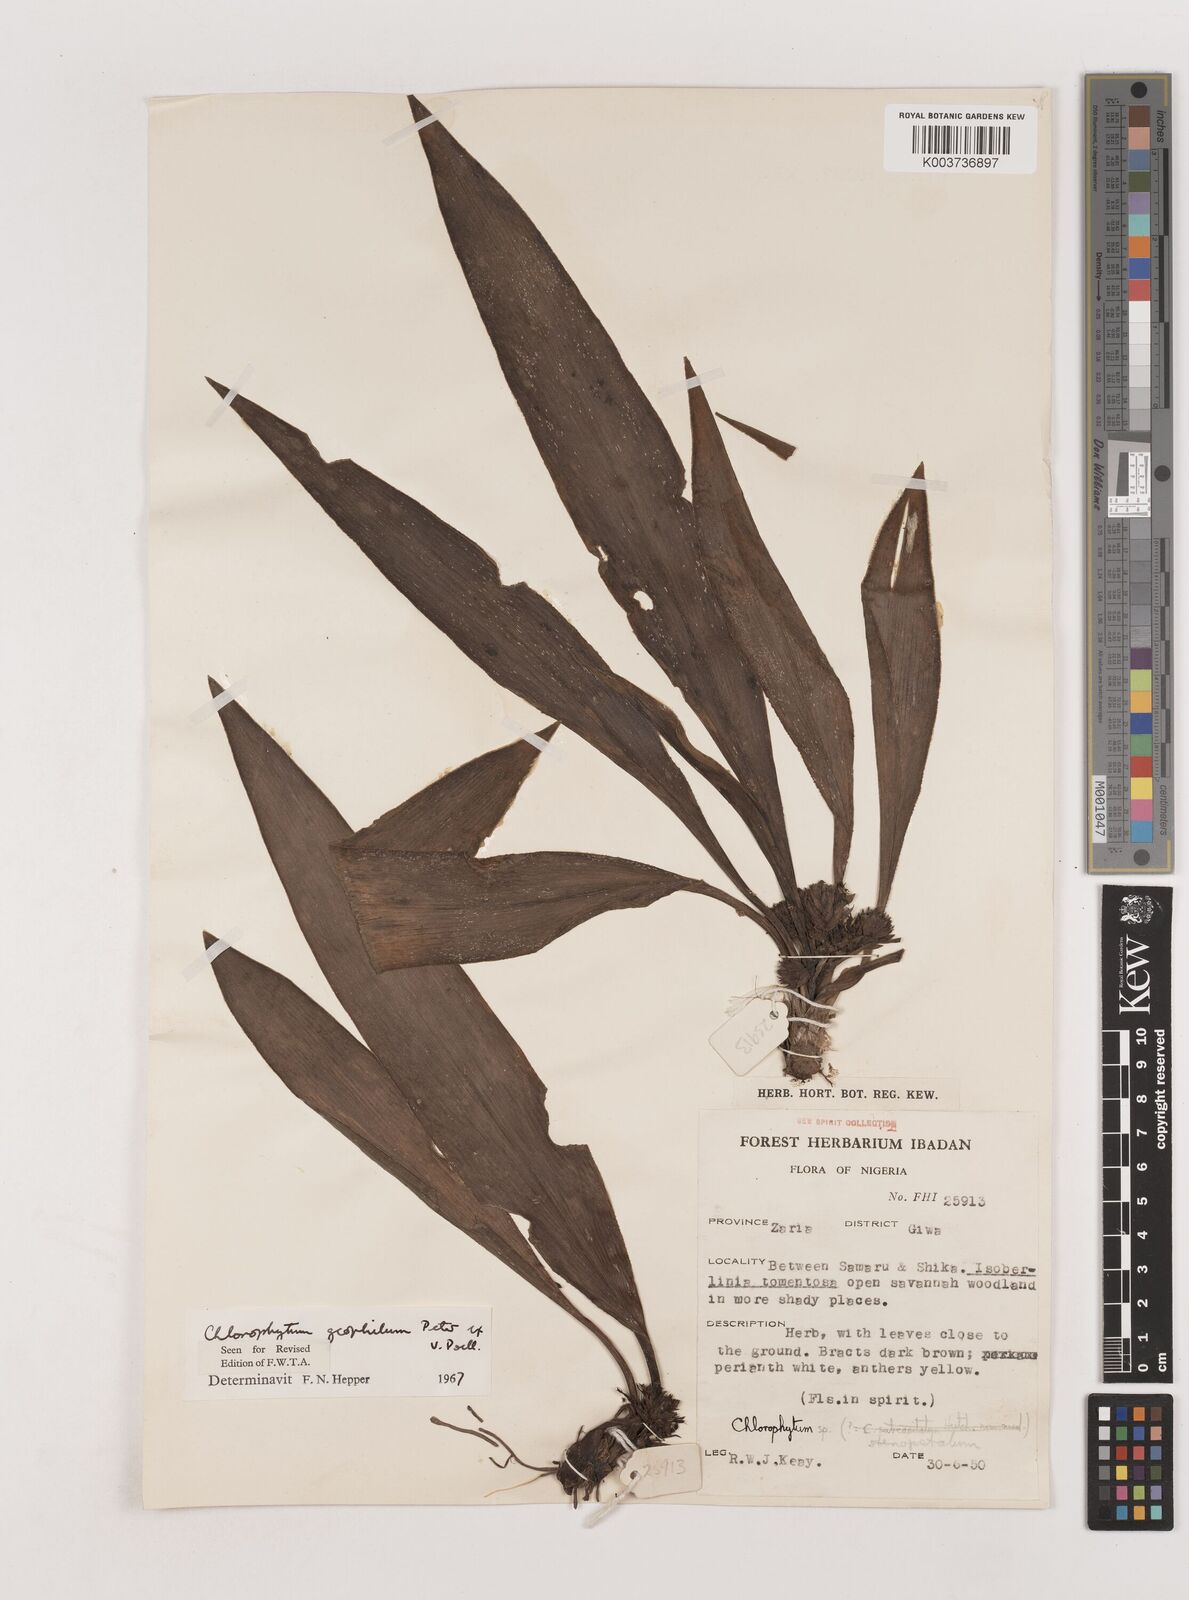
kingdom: Plantae
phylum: Tracheophyta
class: Liliopsida
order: Asparagales
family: Asparagaceae
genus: Chlorophytum
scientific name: Chlorophytum geophilum
